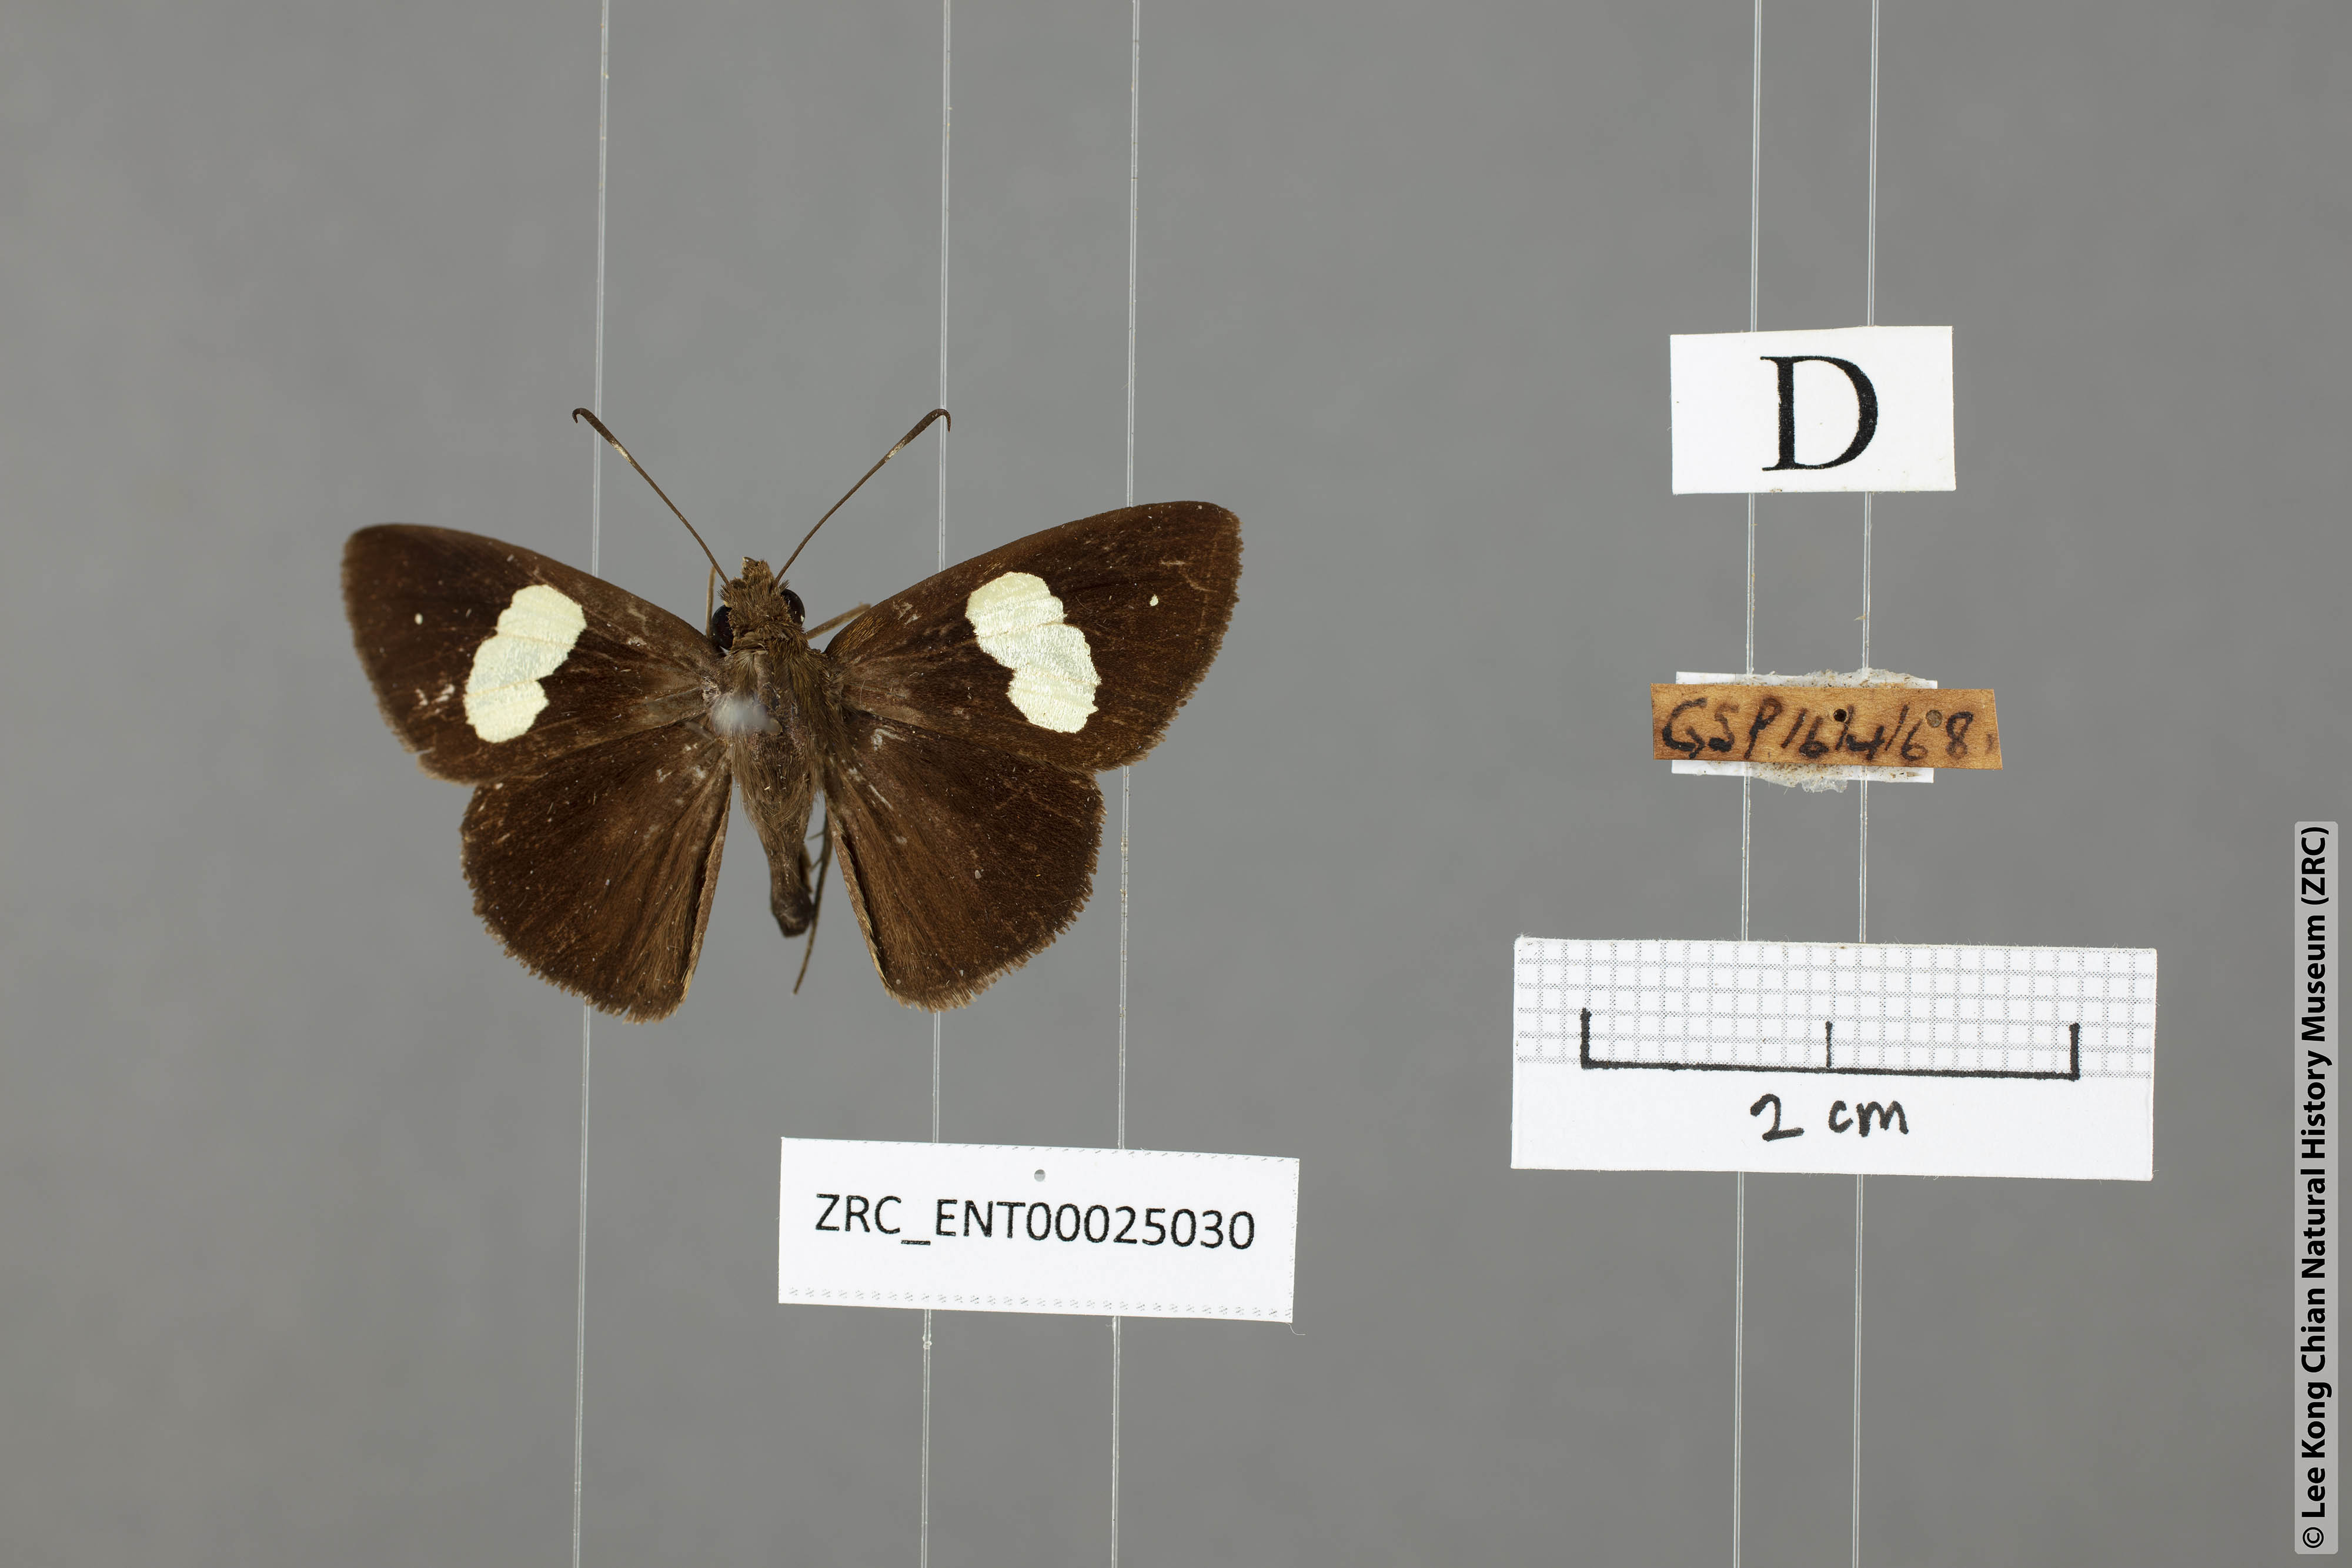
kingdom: Animalia
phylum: Arthropoda
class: Insecta
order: Lepidoptera
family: Hesperiidae
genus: Notocrypta
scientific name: Notocrypta paralysos
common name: Common banded demon
